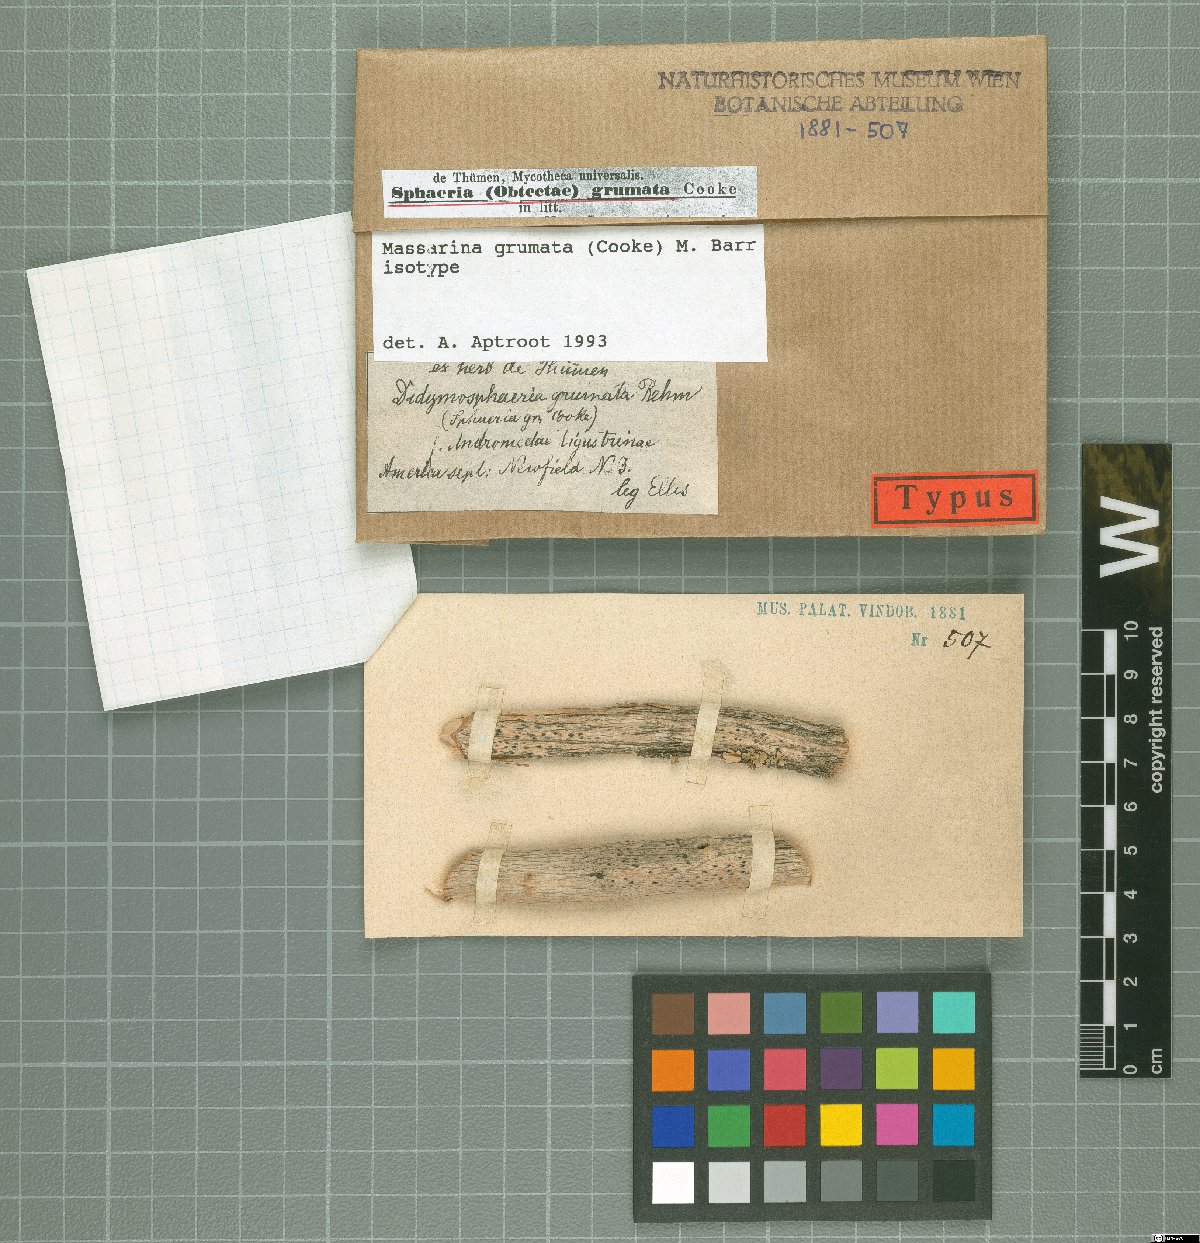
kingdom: Fungi
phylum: Ascomycota
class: Sordariomycetes
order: Xylariales
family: Xylariaceae
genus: Sphaeria
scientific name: Sphaeria
